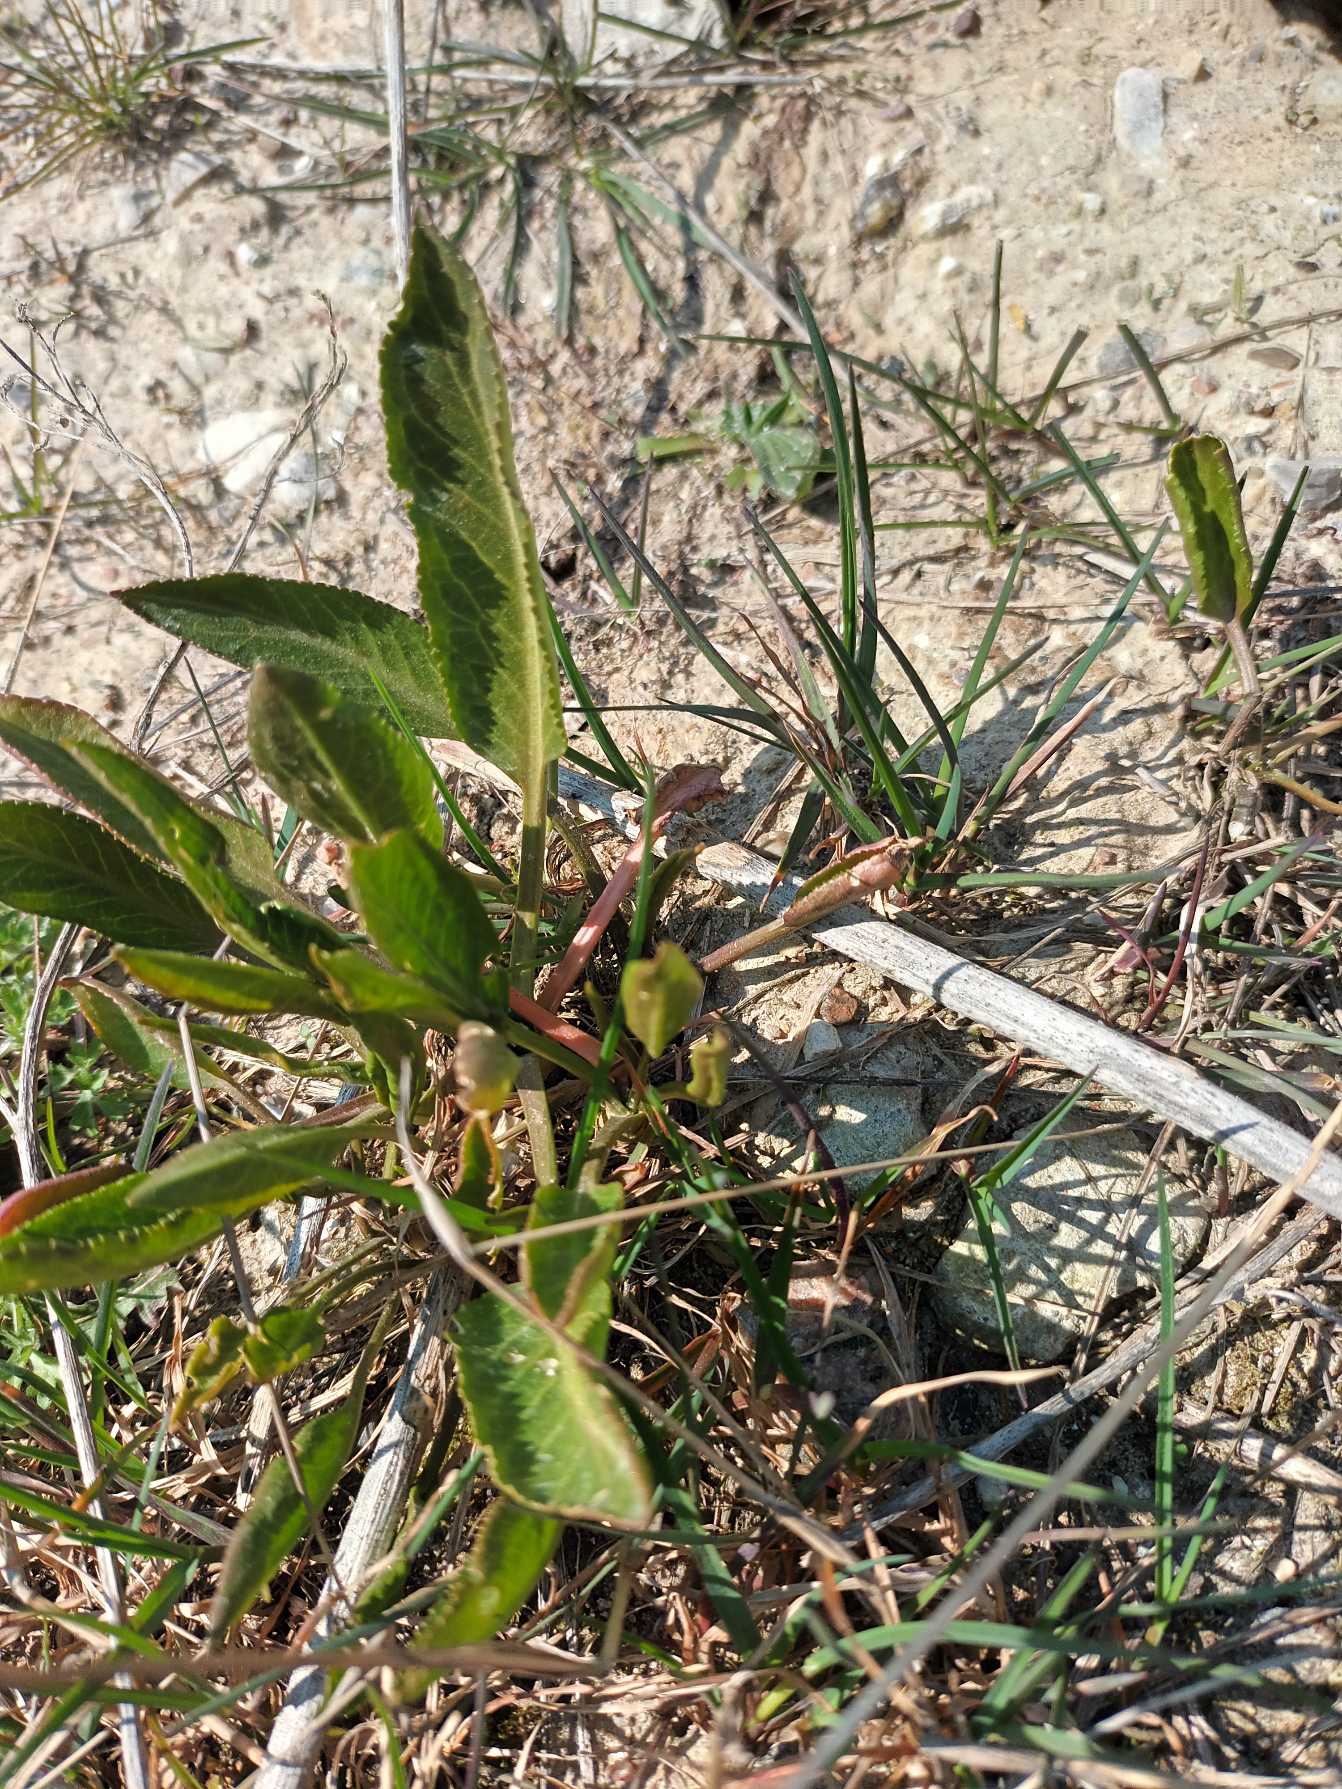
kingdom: Plantae
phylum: Tracheophyta
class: Magnoliopsida
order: Brassicales
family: Brassicaceae
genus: Lepidium
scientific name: Lepidium latifolium
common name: Strand-karse
